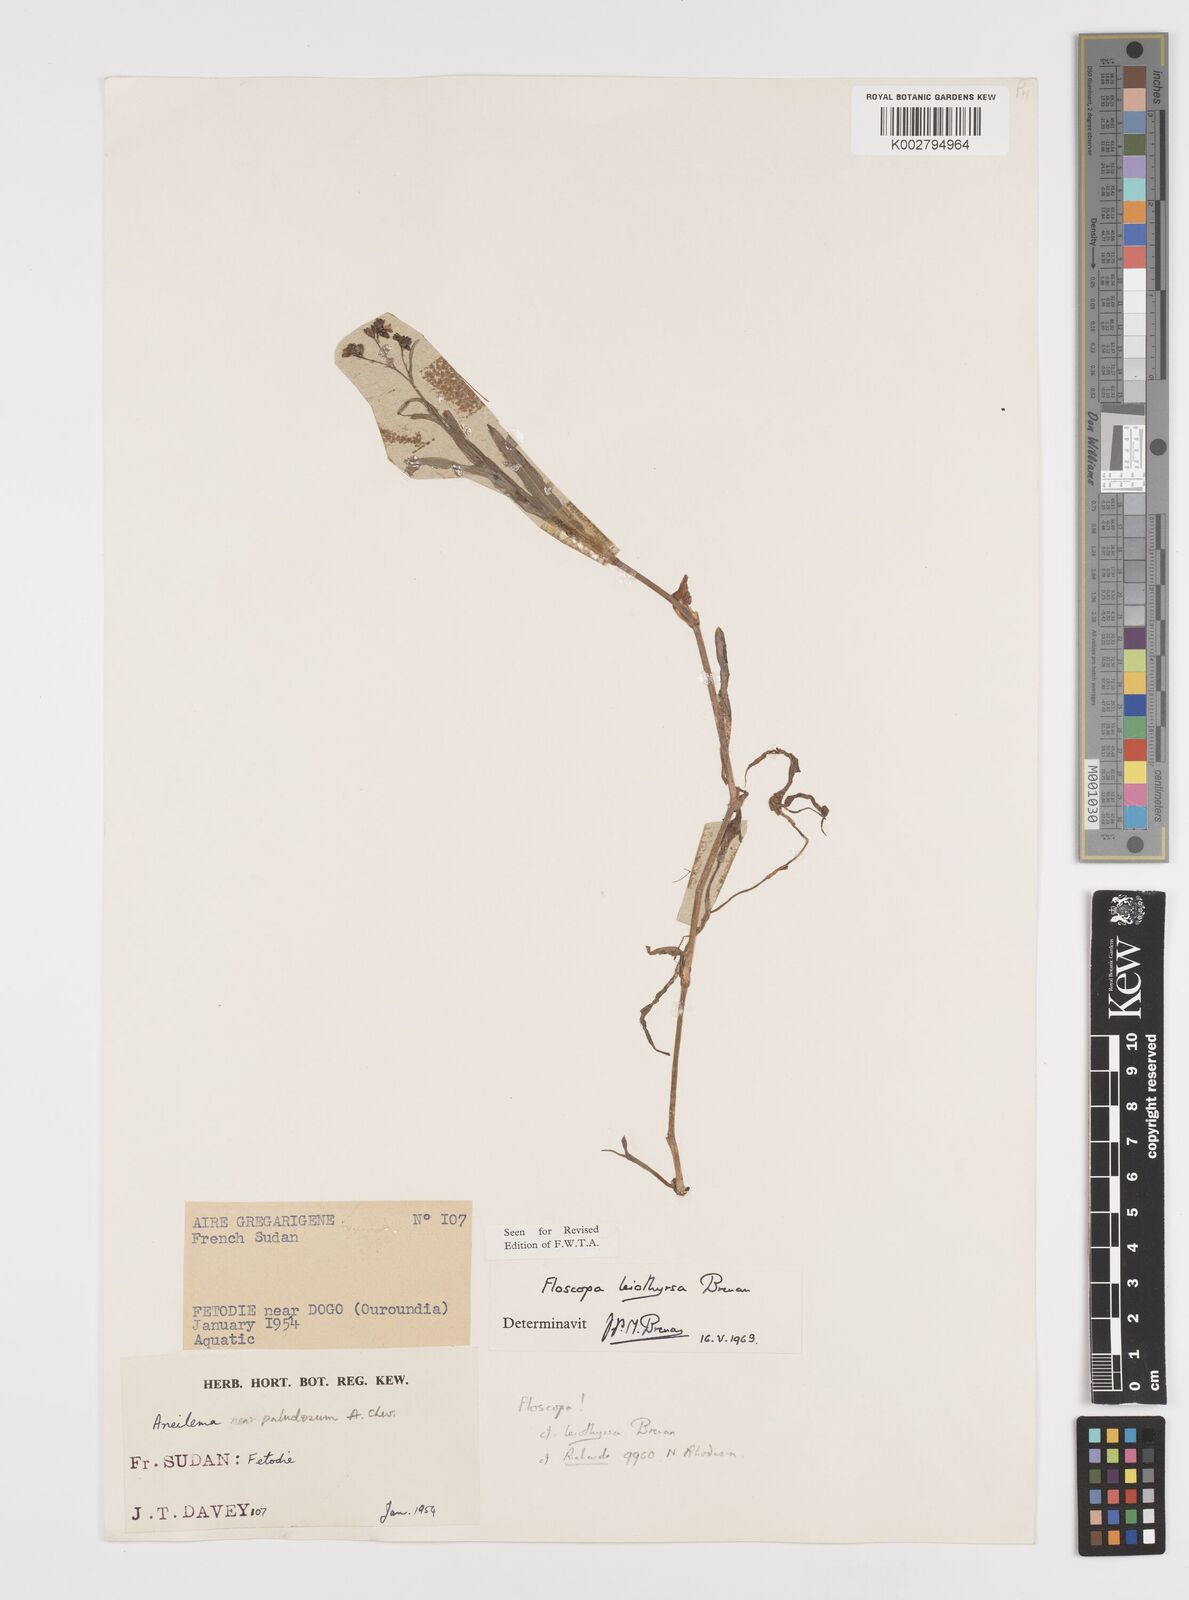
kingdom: Plantae
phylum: Tracheophyta
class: Liliopsida
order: Commelinales
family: Commelinaceae
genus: Floscopa
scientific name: Floscopa leiothyrsa
